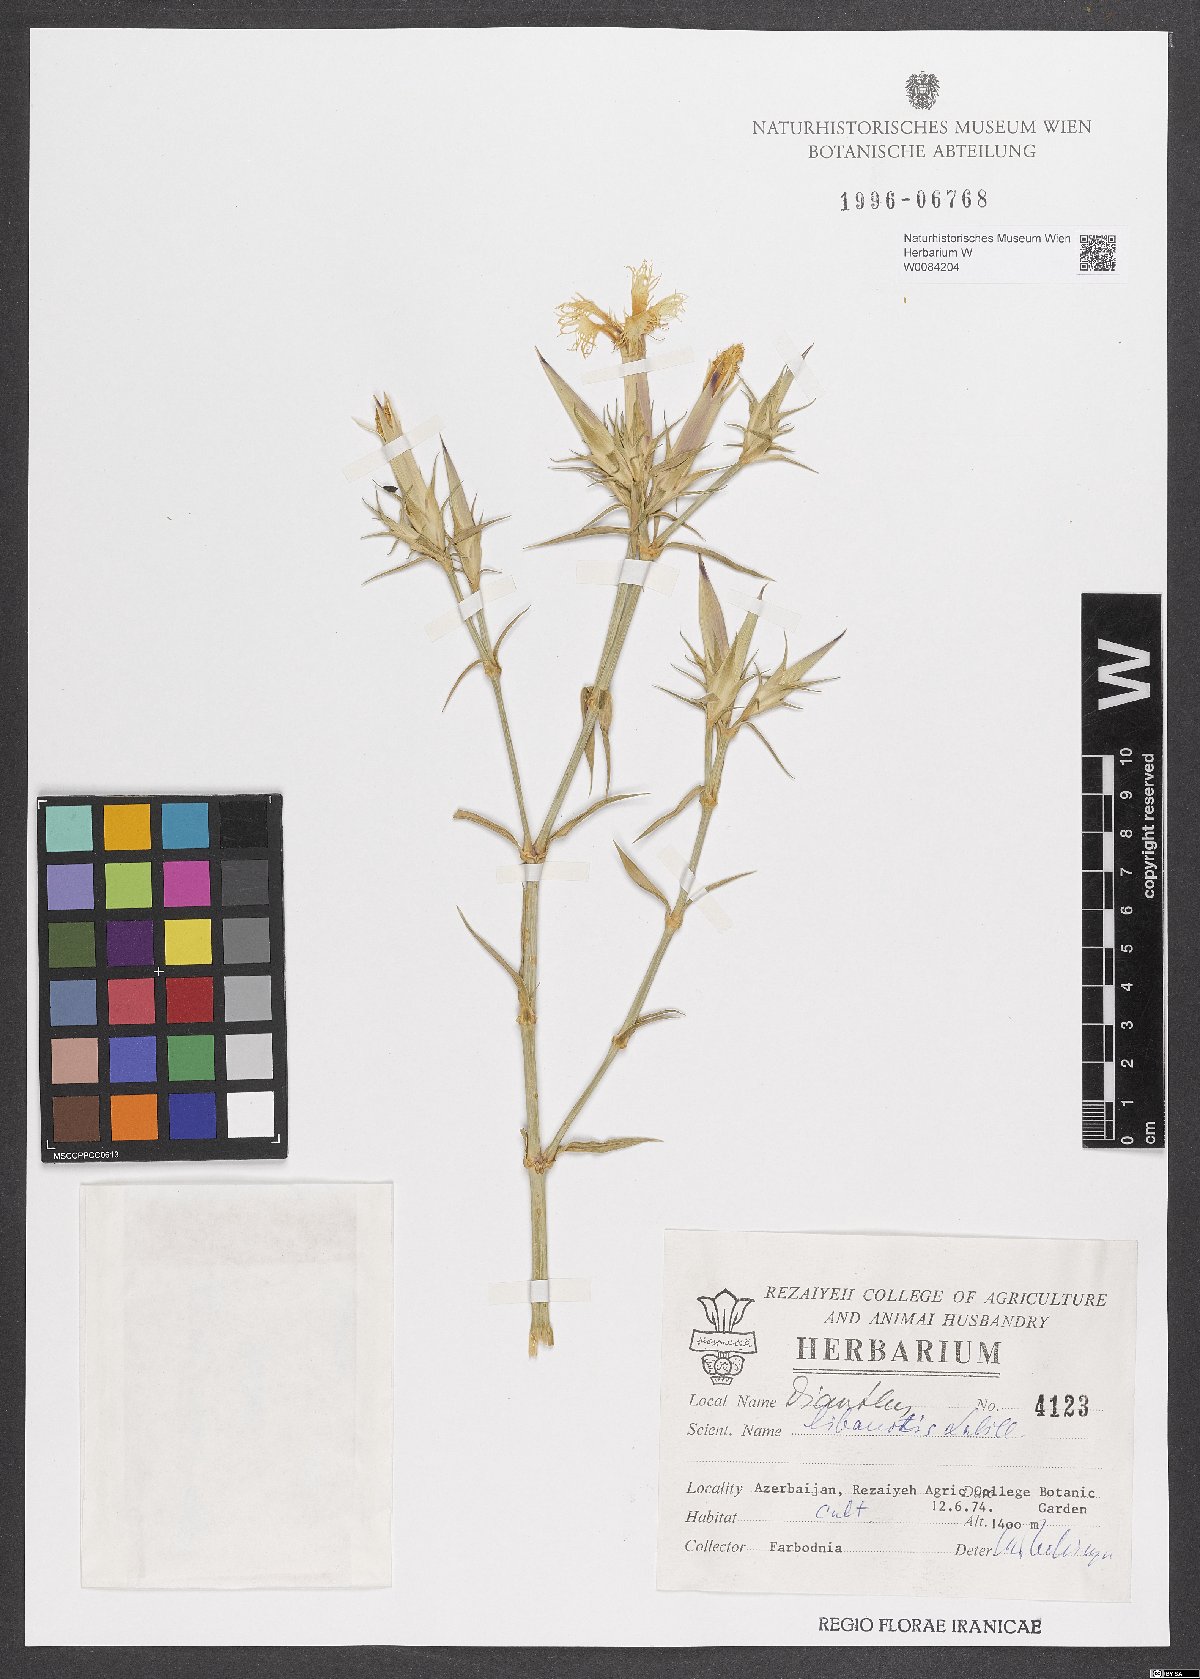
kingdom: Plantae
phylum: Tracheophyta
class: Magnoliopsida
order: Caryophyllales
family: Caryophyllaceae
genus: Dianthus
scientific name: Dianthus libanotis
